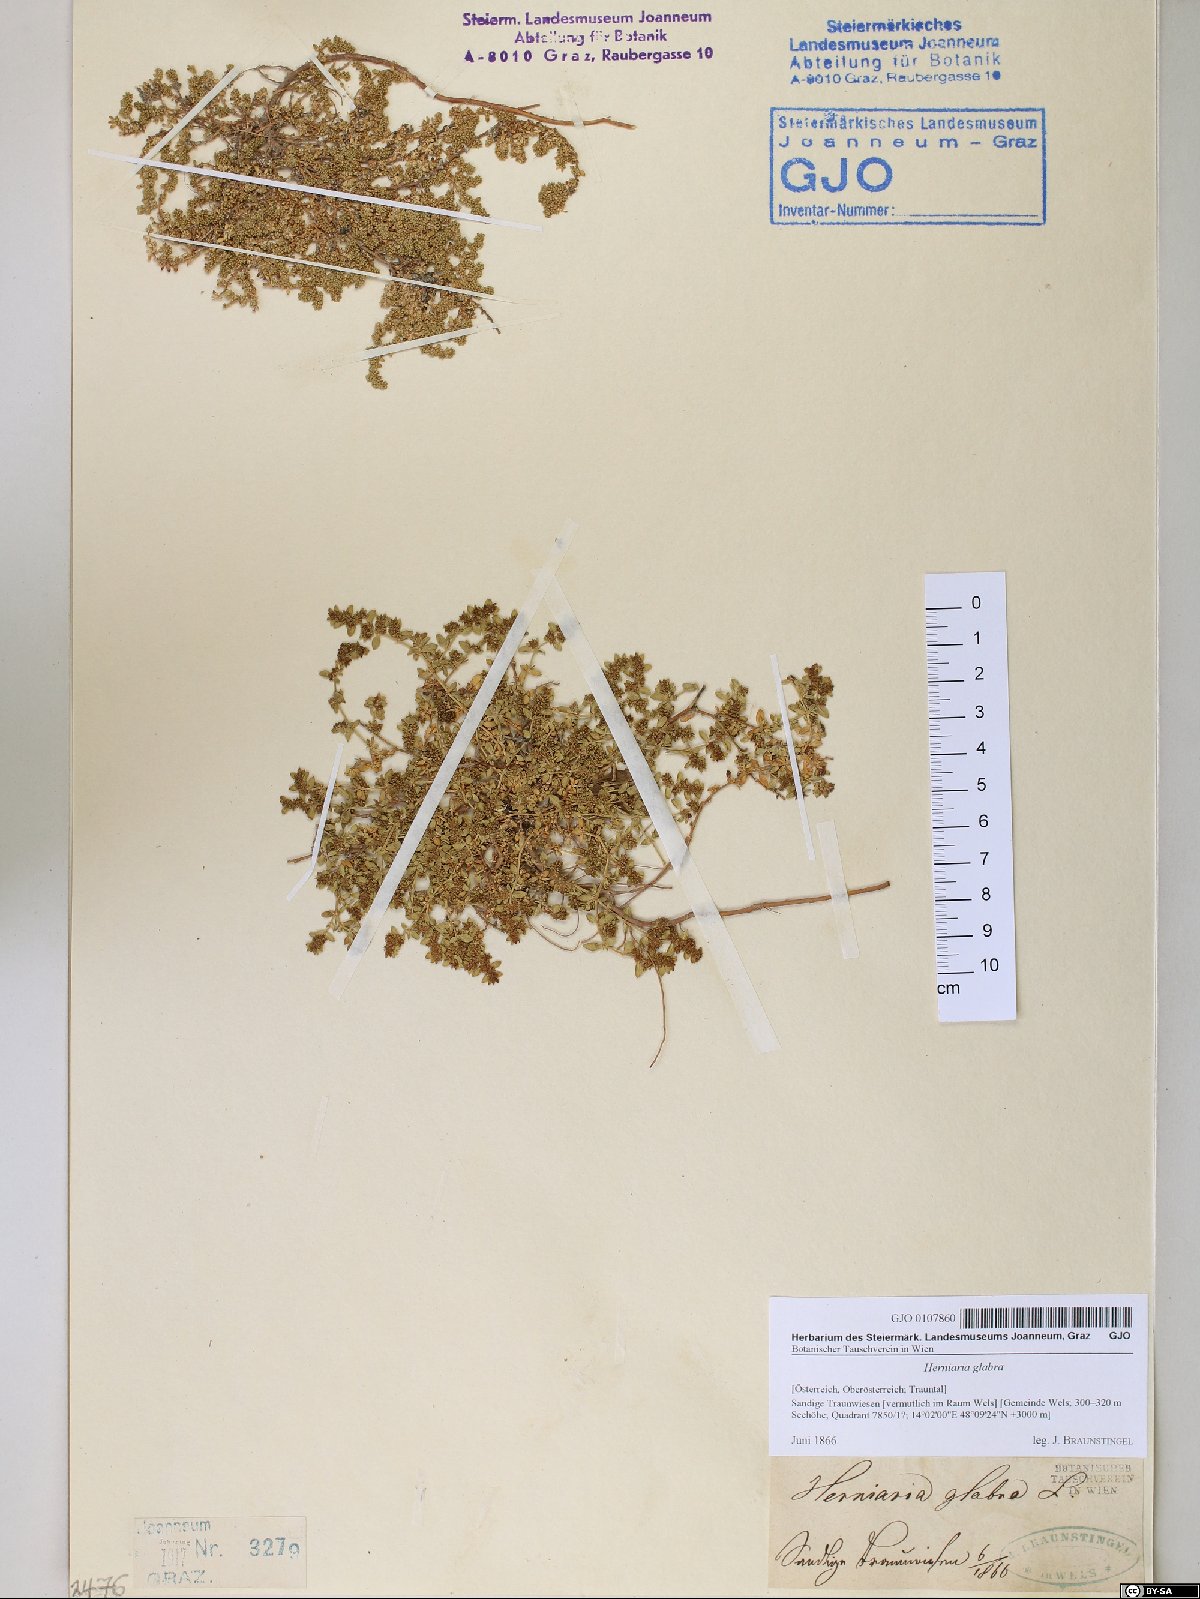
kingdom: Plantae
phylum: Tracheophyta
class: Magnoliopsida
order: Caryophyllales
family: Caryophyllaceae
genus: Herniaria
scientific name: Herniaria glabra
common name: Smooth rupturewort
